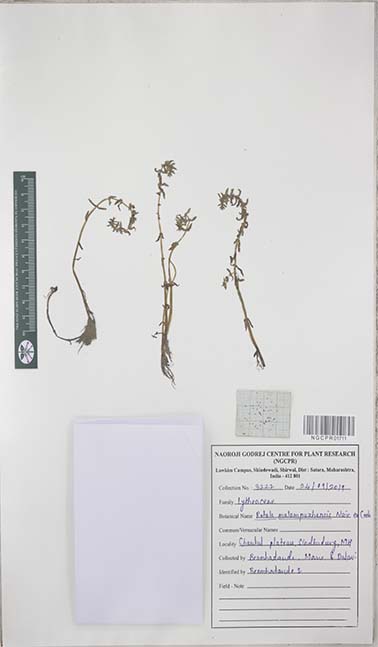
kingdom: Plantae
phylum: Tracheophyta
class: Magnoliopsida
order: Myrtales
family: Lythraceae
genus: Rotala
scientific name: Rotala malampuzhensis
